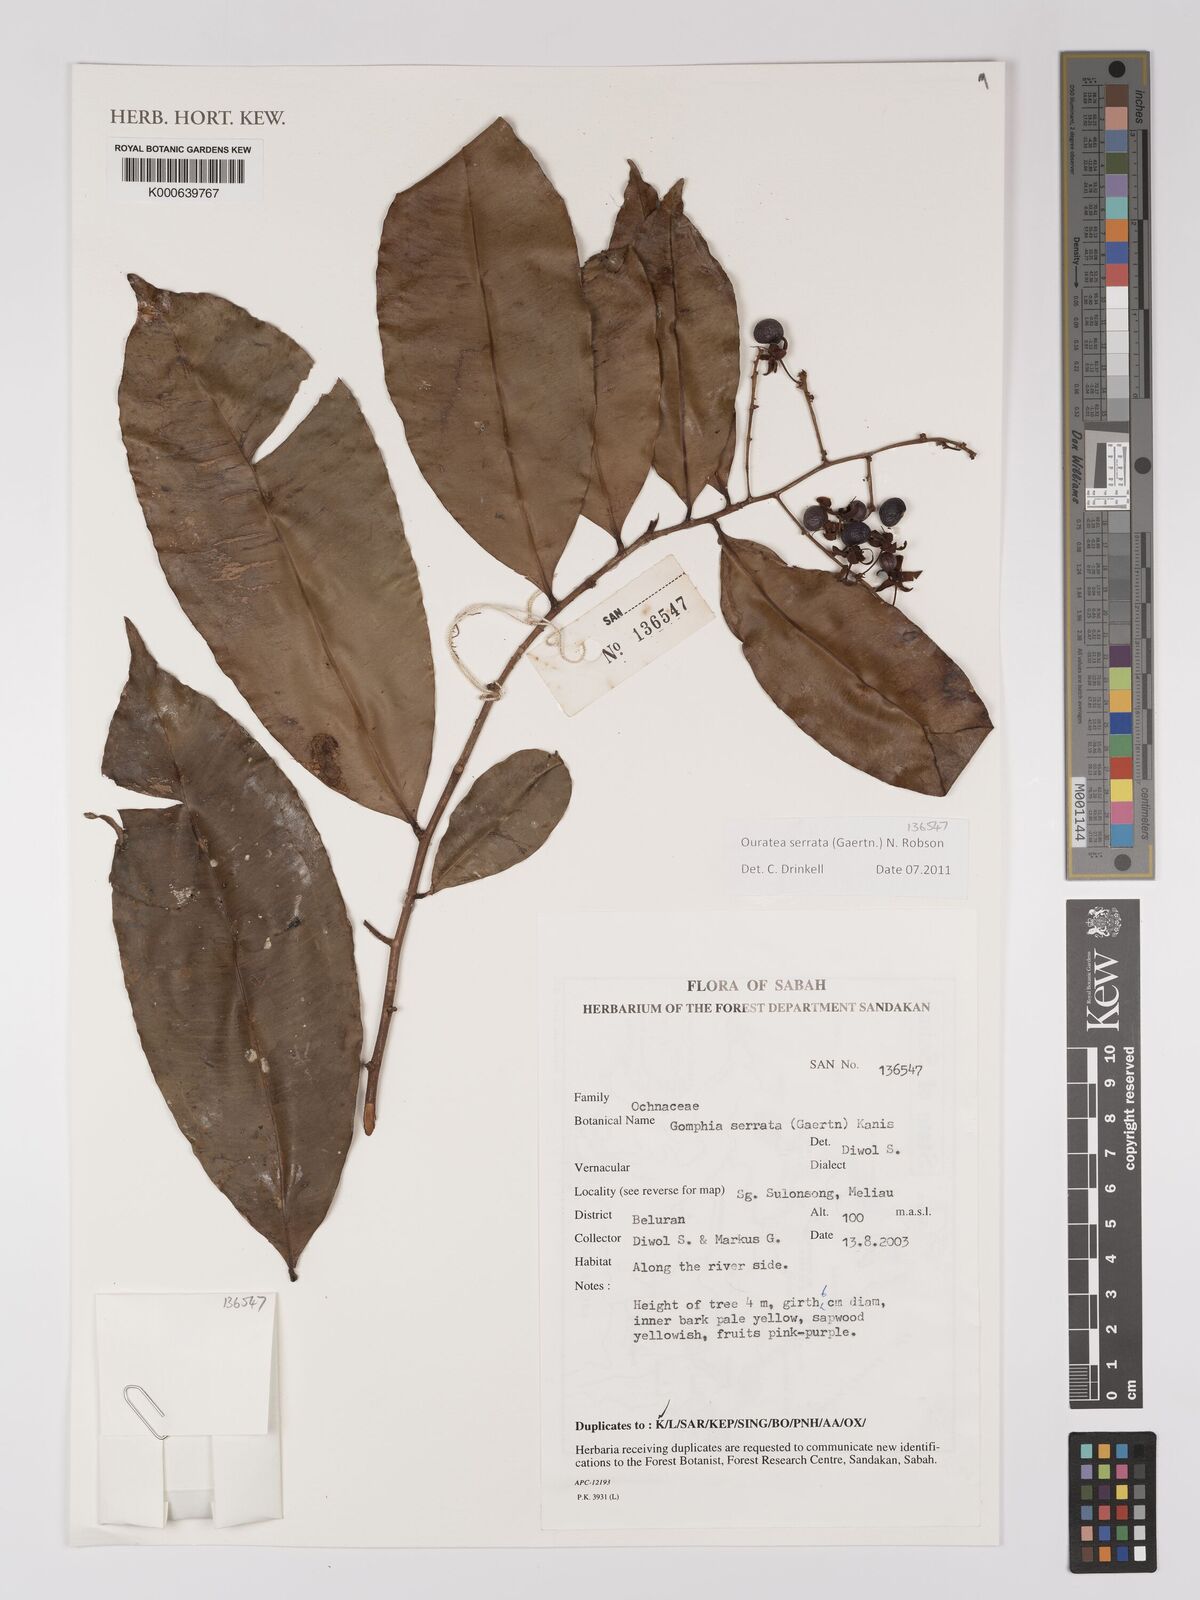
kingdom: Plantae
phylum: Tracheophyta
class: Magnoliopsida
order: Malpighiales
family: Ochnaceae
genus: Gomphia
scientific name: Gomphia serrata
